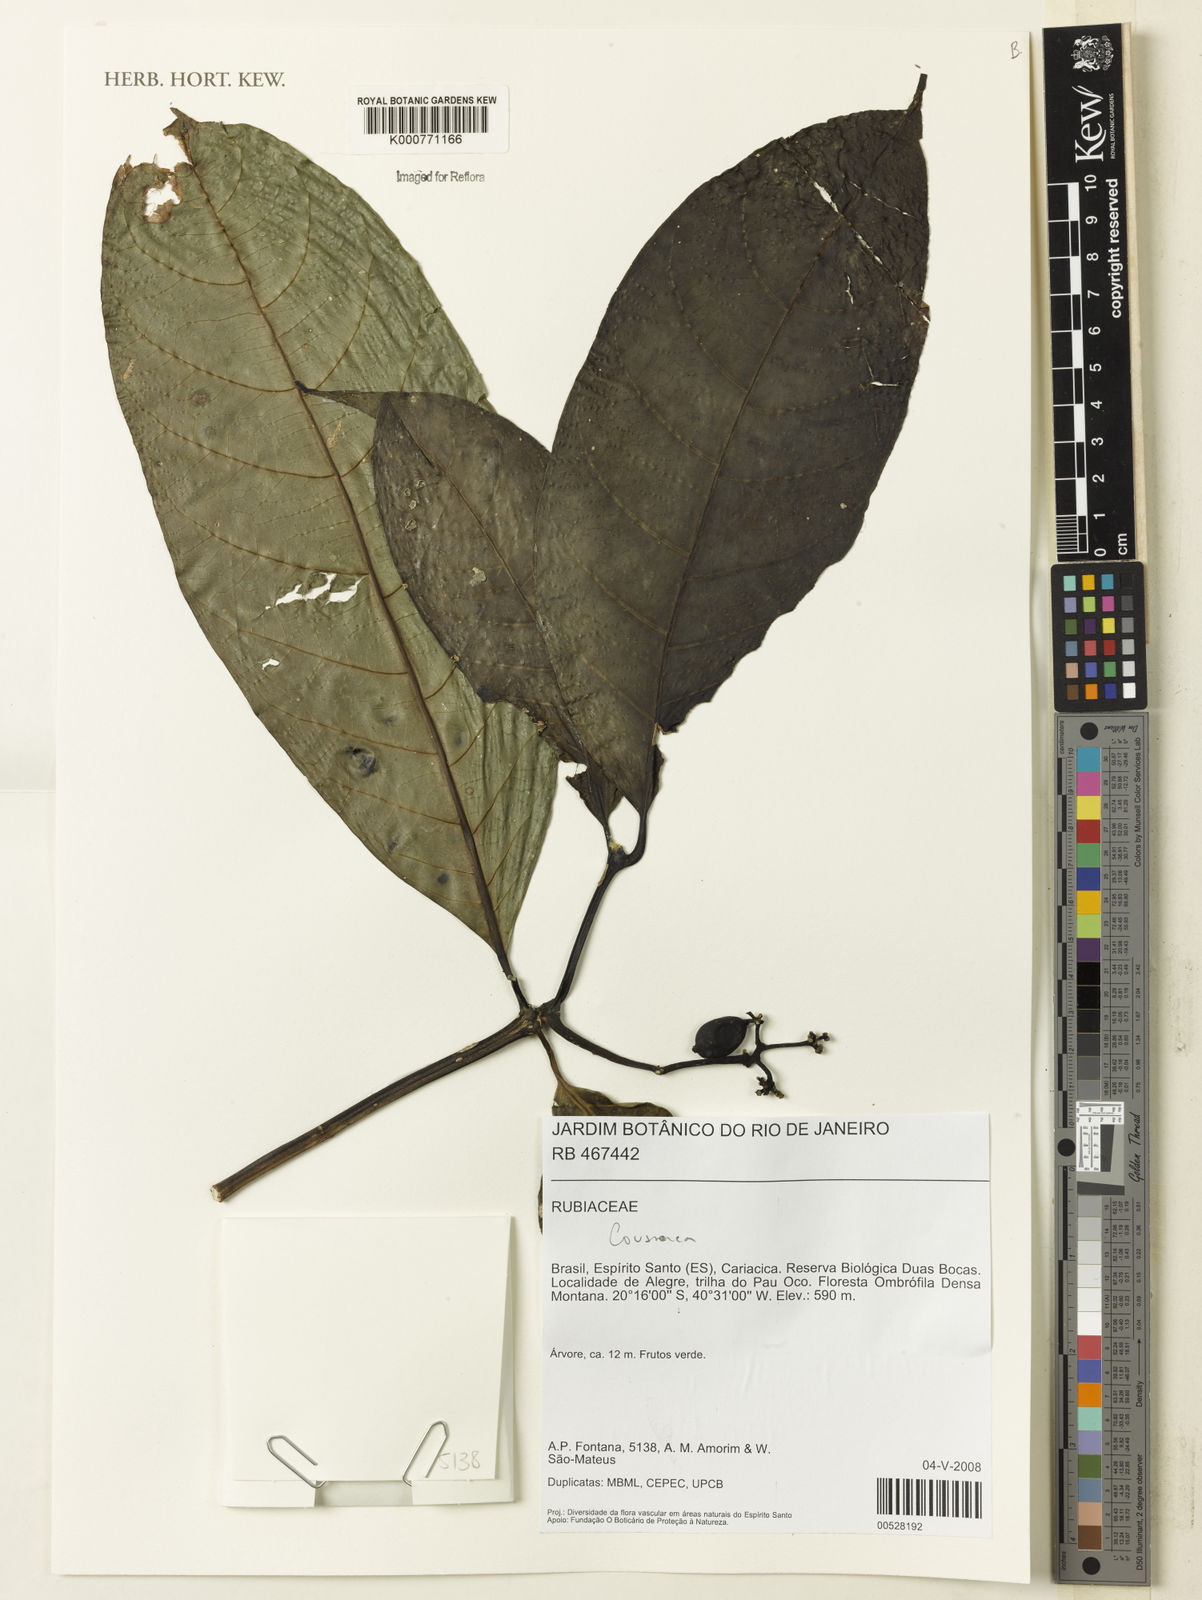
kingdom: Plantae
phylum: Tracheophyta
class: Magnoliopsida
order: Gentianales
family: Rubiaceae
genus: Coussarea
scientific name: Coussarea
